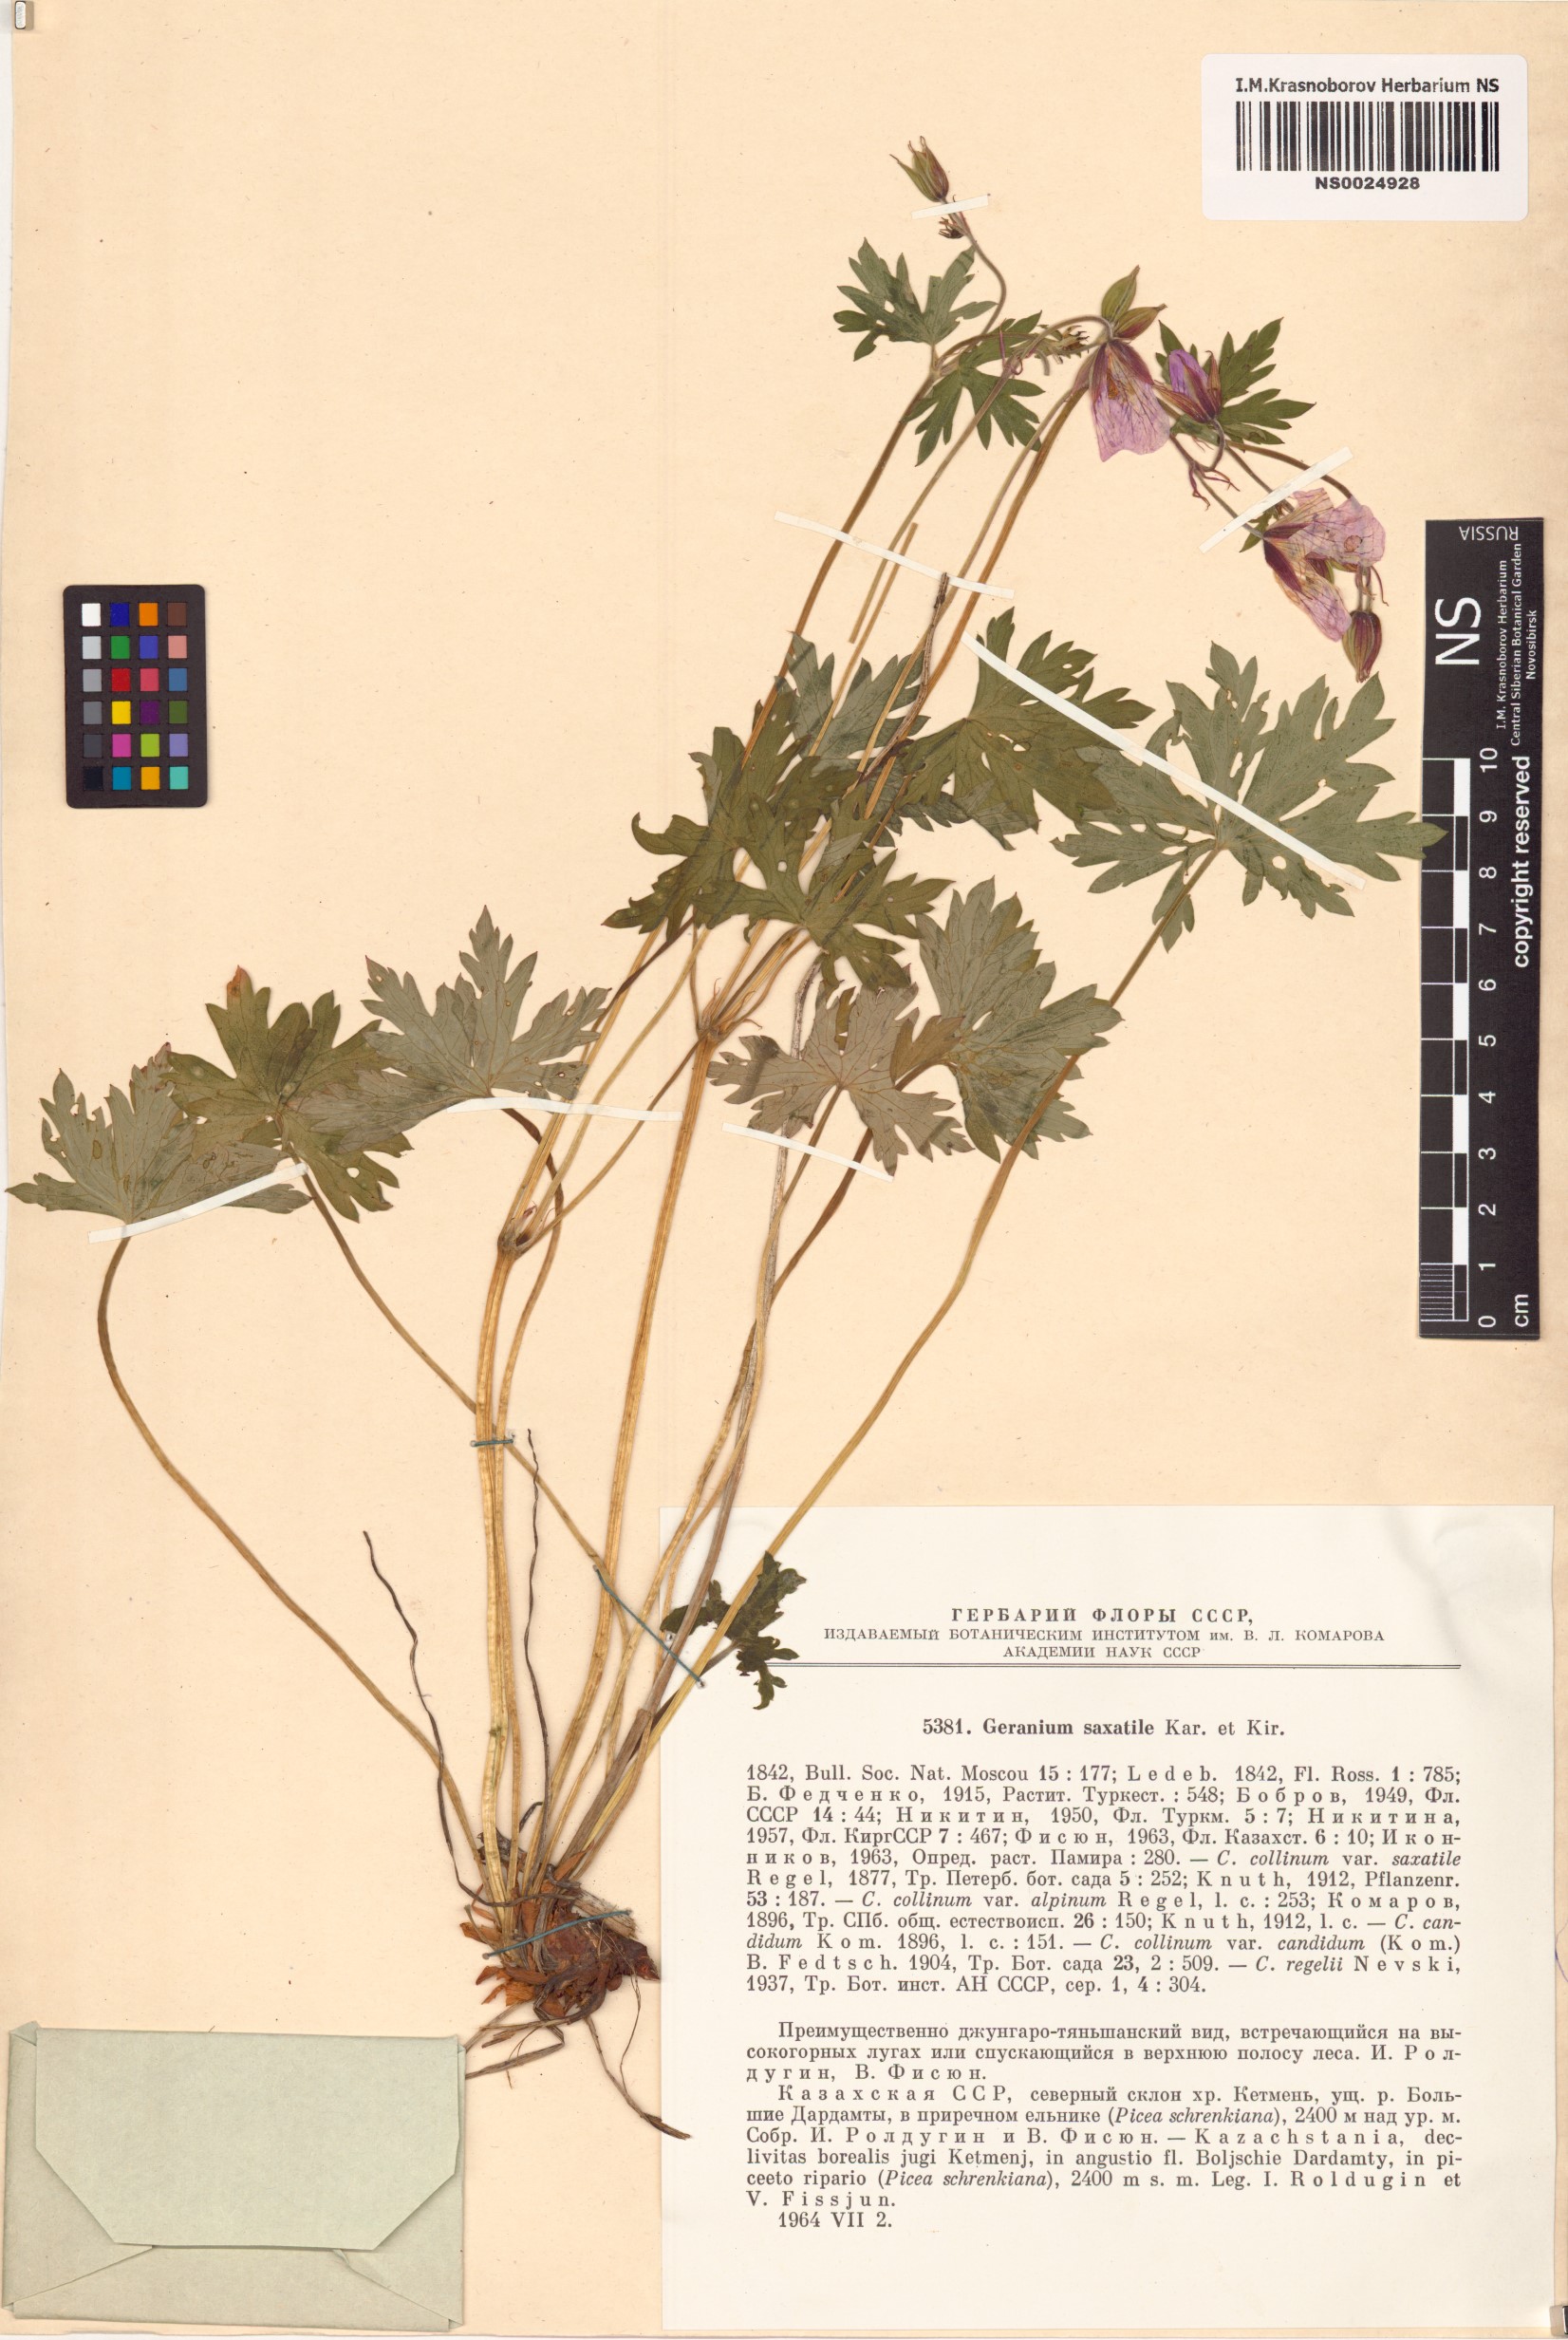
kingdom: Plantae
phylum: Tracheophyta
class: Magnoliopsida
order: Geraniales
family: Geraniaceae
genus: Geranium
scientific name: Geranium saxatile
